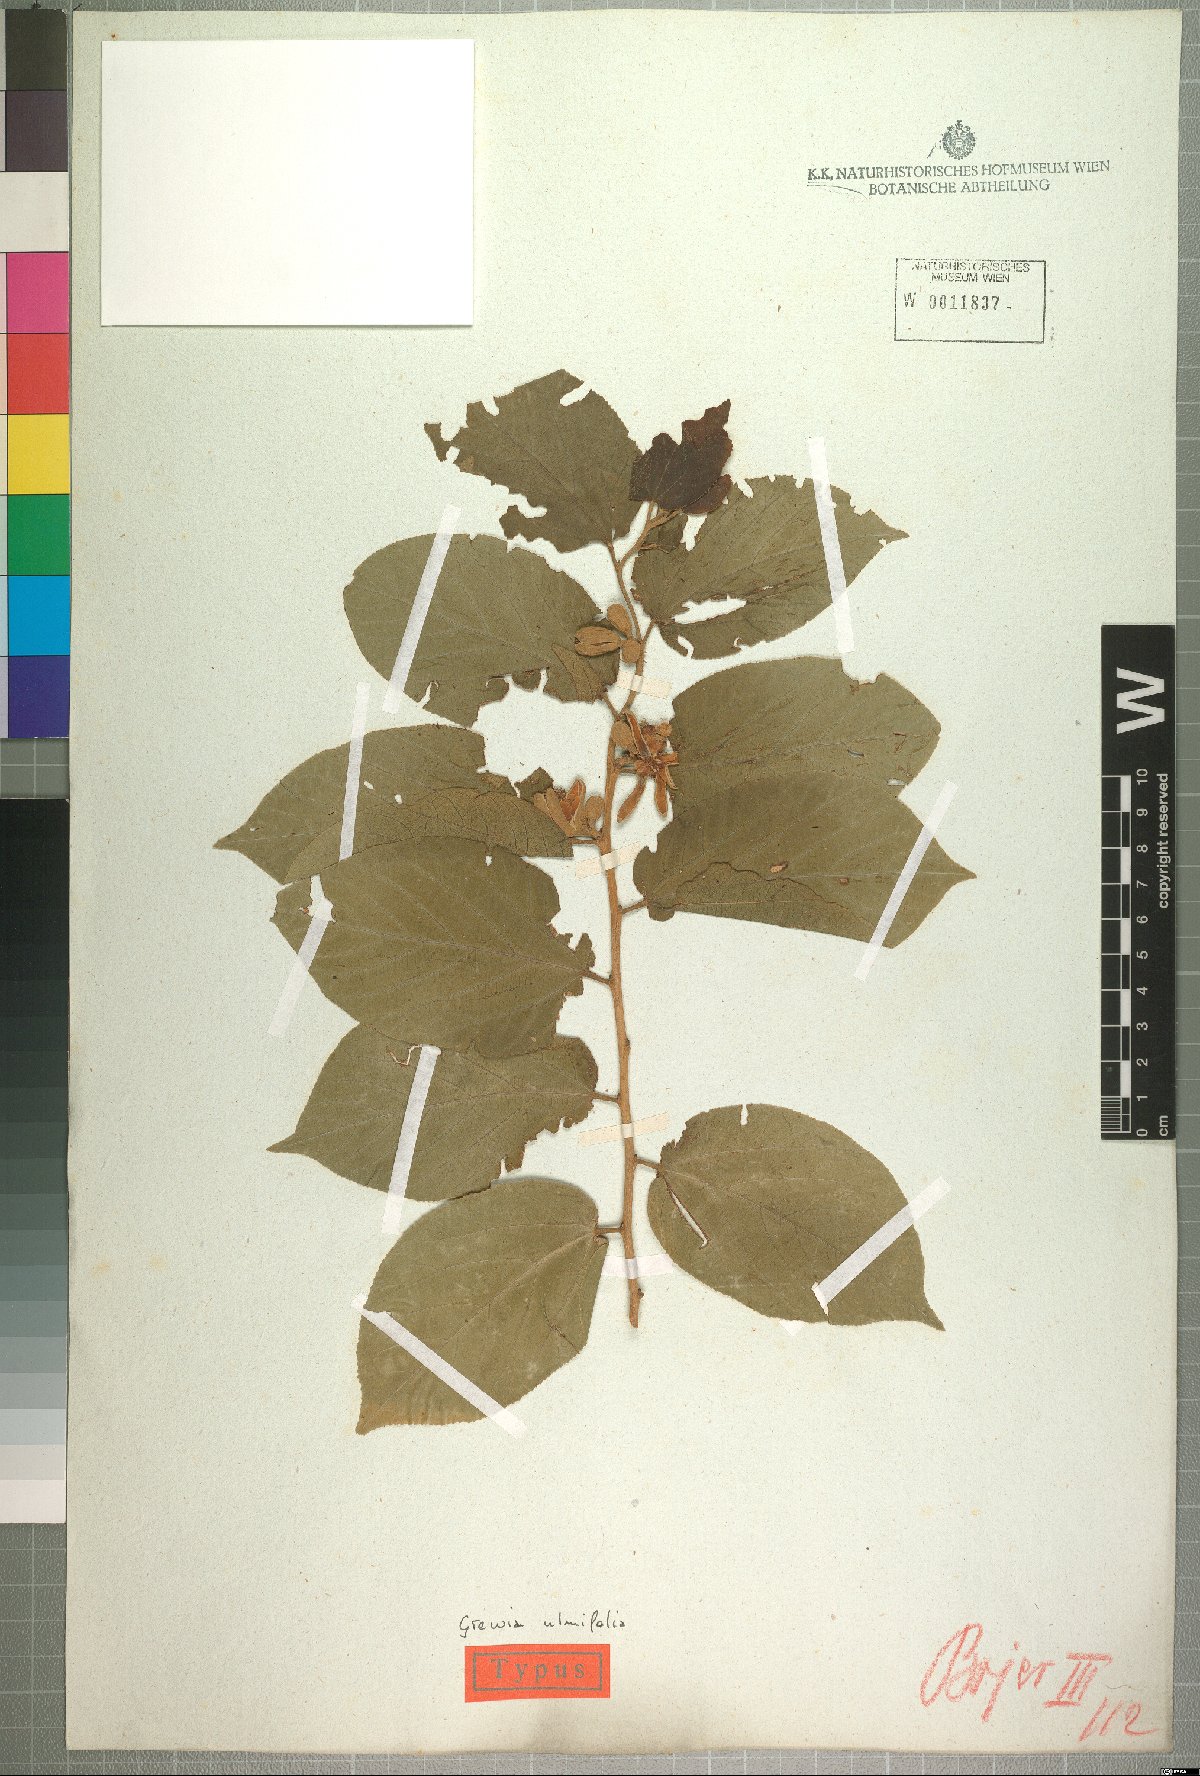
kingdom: Plantae
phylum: Tracheophyta
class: Magnoliopsida
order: Malvales
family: Malvaceae
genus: Grewia
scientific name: Grewia glandulosa
